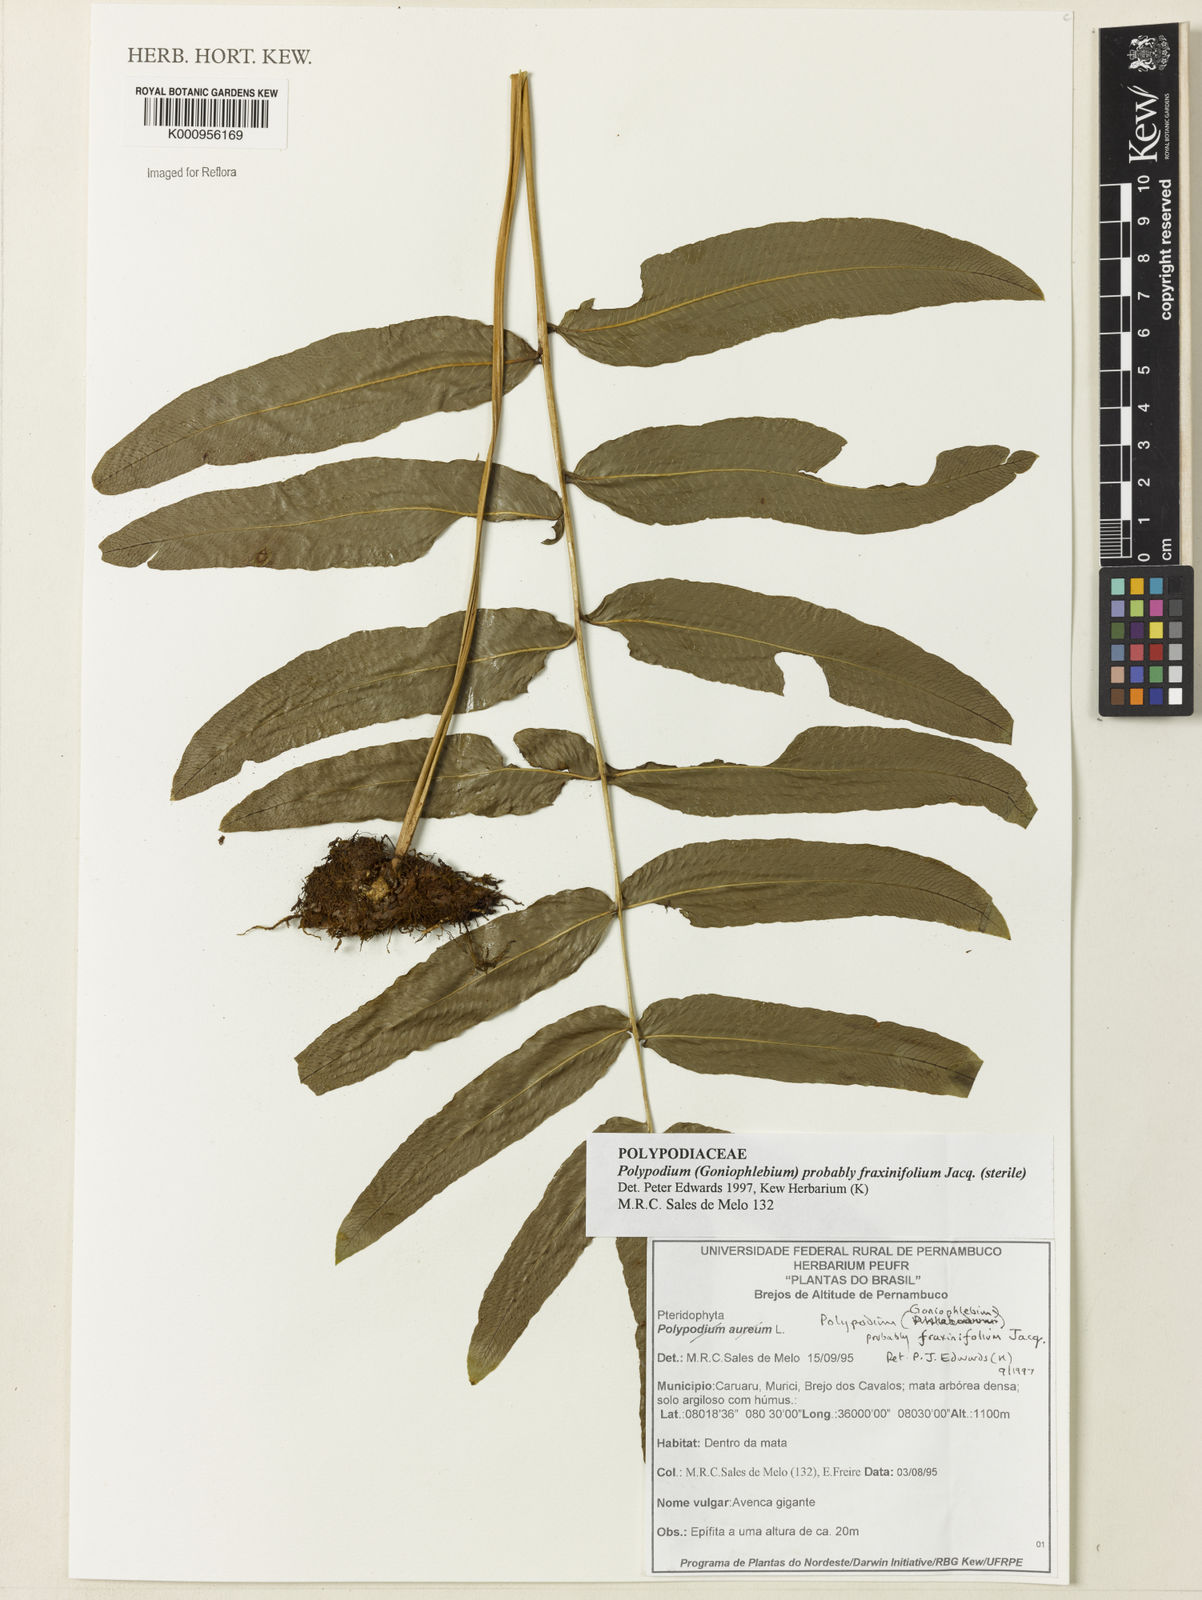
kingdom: Plantae
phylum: Tracheophyta
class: Polypodiopsida
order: Polypodiales
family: Polypodiaceae
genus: Serpocaulon
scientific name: Serpocaulon fraxinifolium
